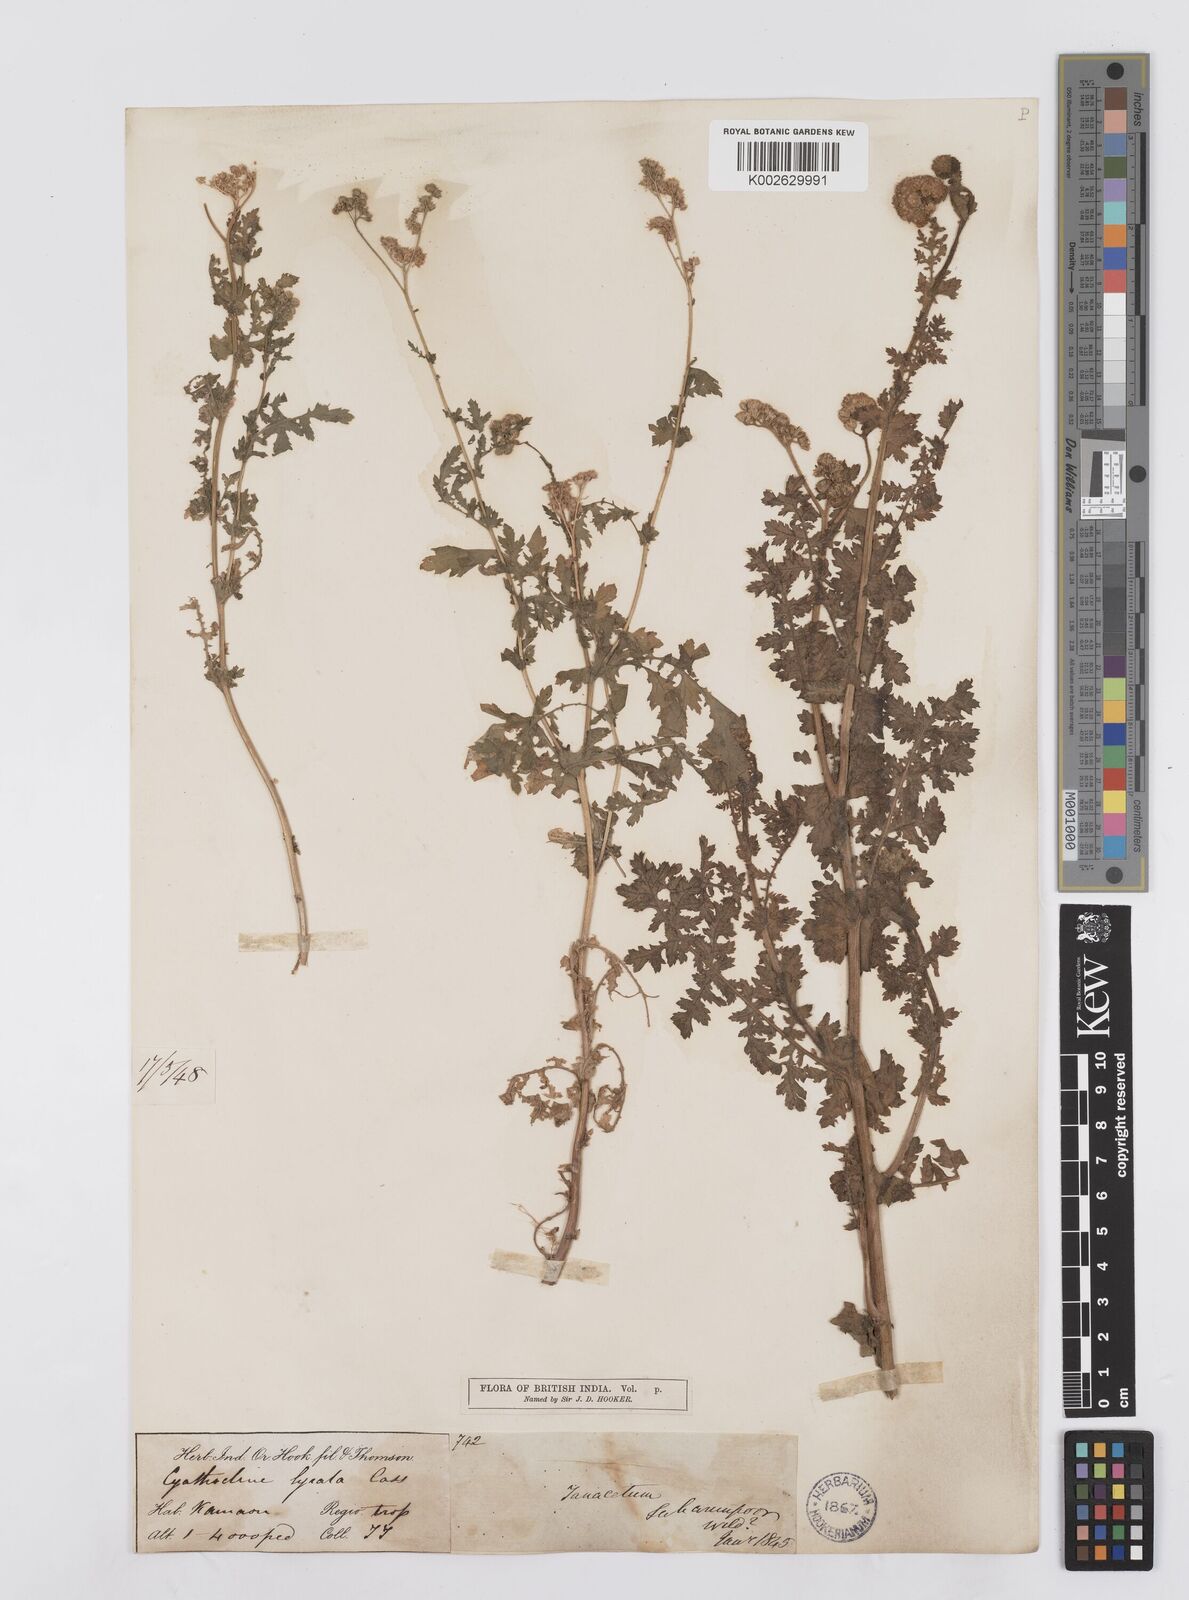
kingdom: Plantae
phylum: Tracheophyta
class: Magnoliopsida
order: Asterales
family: Asteraceae
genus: Cyathocline
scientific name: Cyathocline purpurea
